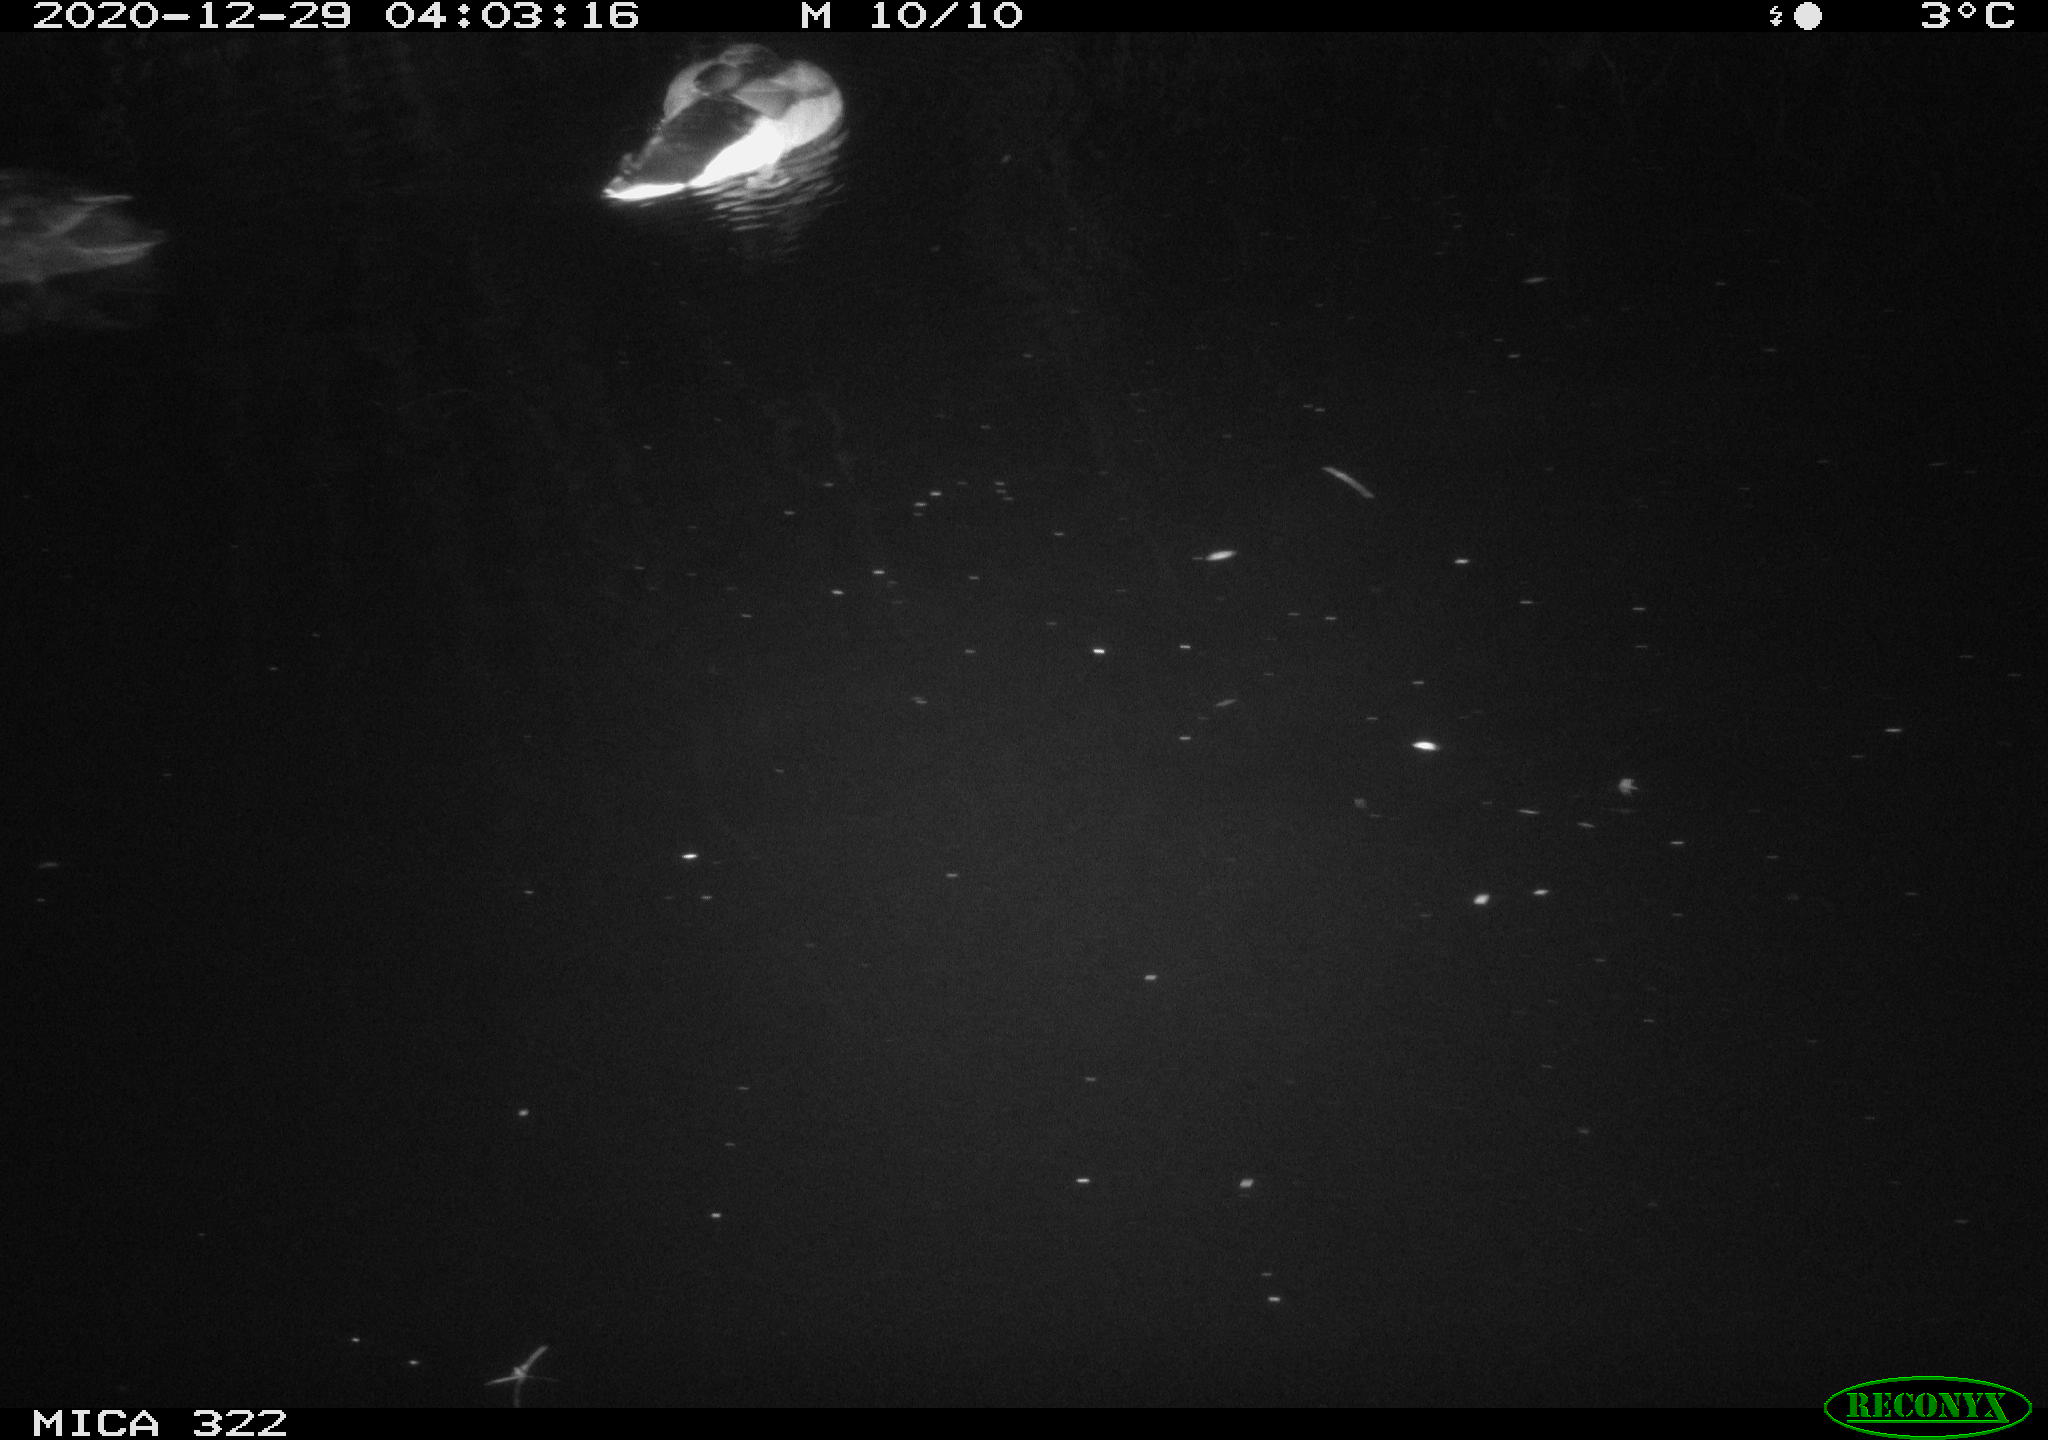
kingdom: Animalia
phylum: Chordata
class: Aves
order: Anseriformes
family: Anatidae
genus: Anas
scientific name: Anas platyrhynchos
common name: Mallard
